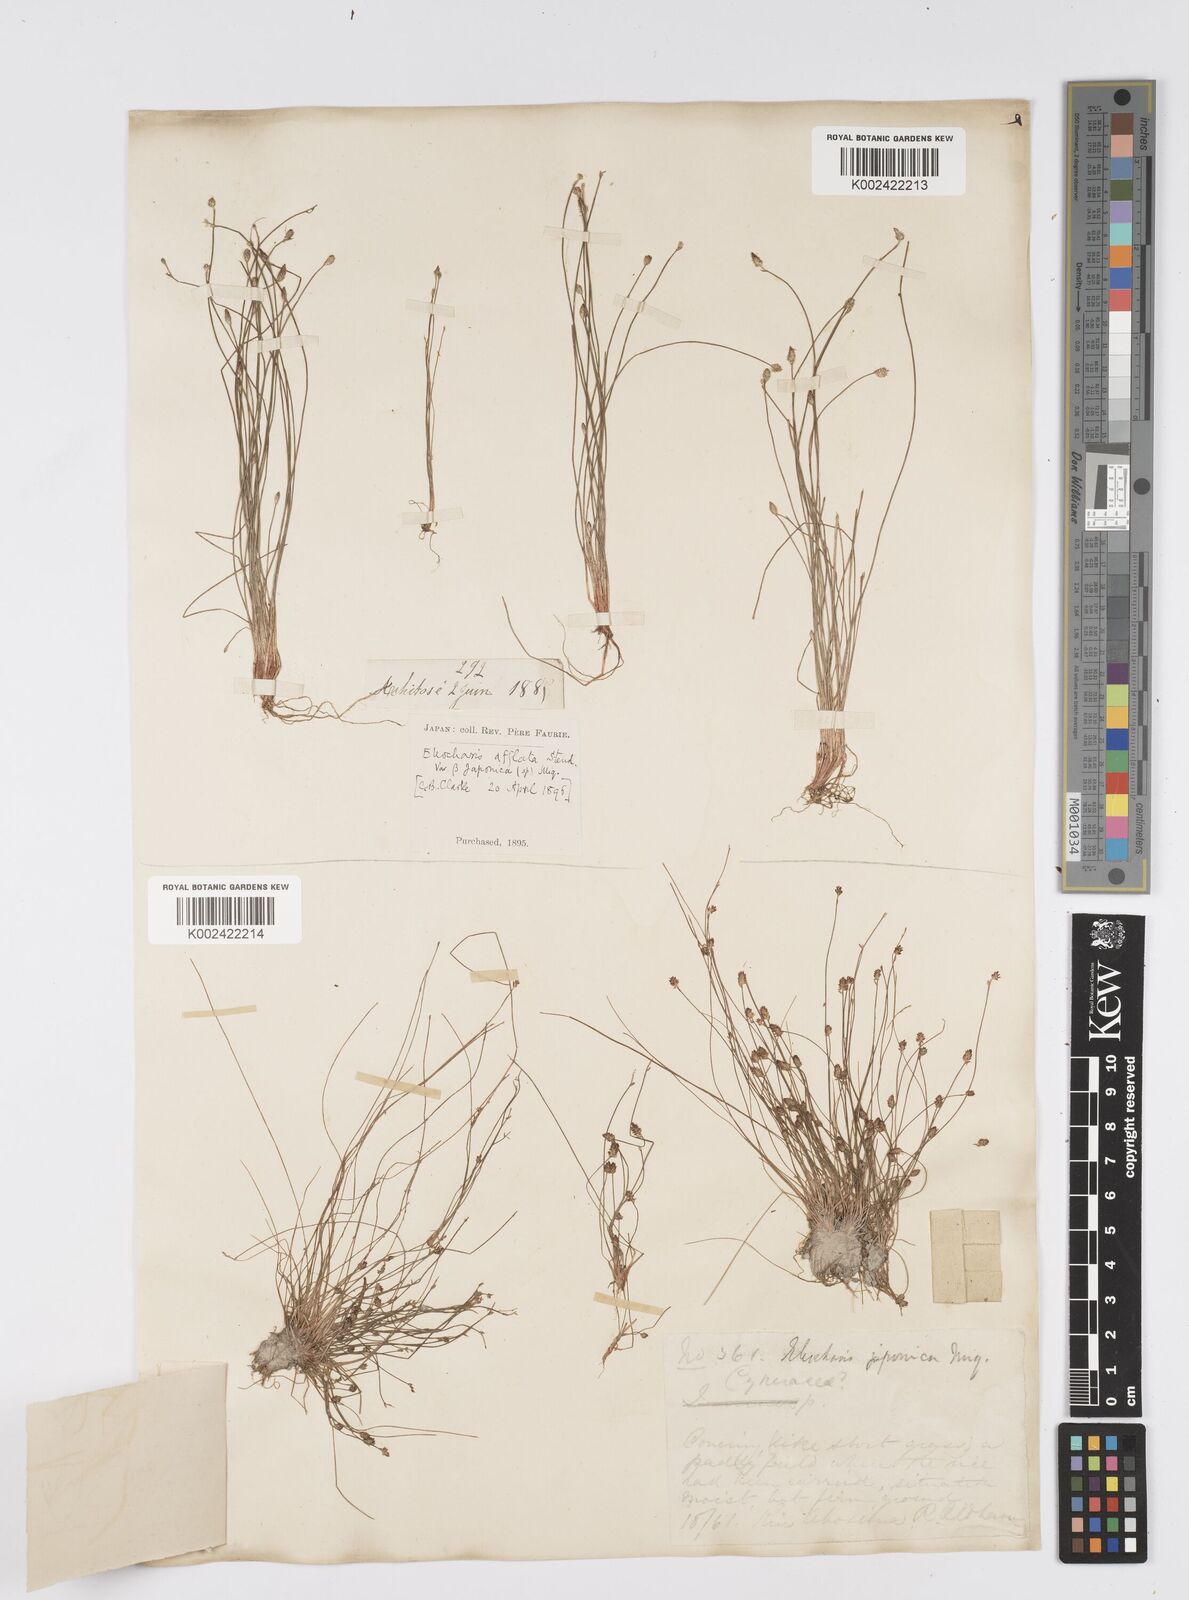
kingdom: Plantae
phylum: Tracheophyta
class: Liliopsida
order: Poales
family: Cyperaceae
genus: Eleocharis
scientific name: Eleocharis pellucida
